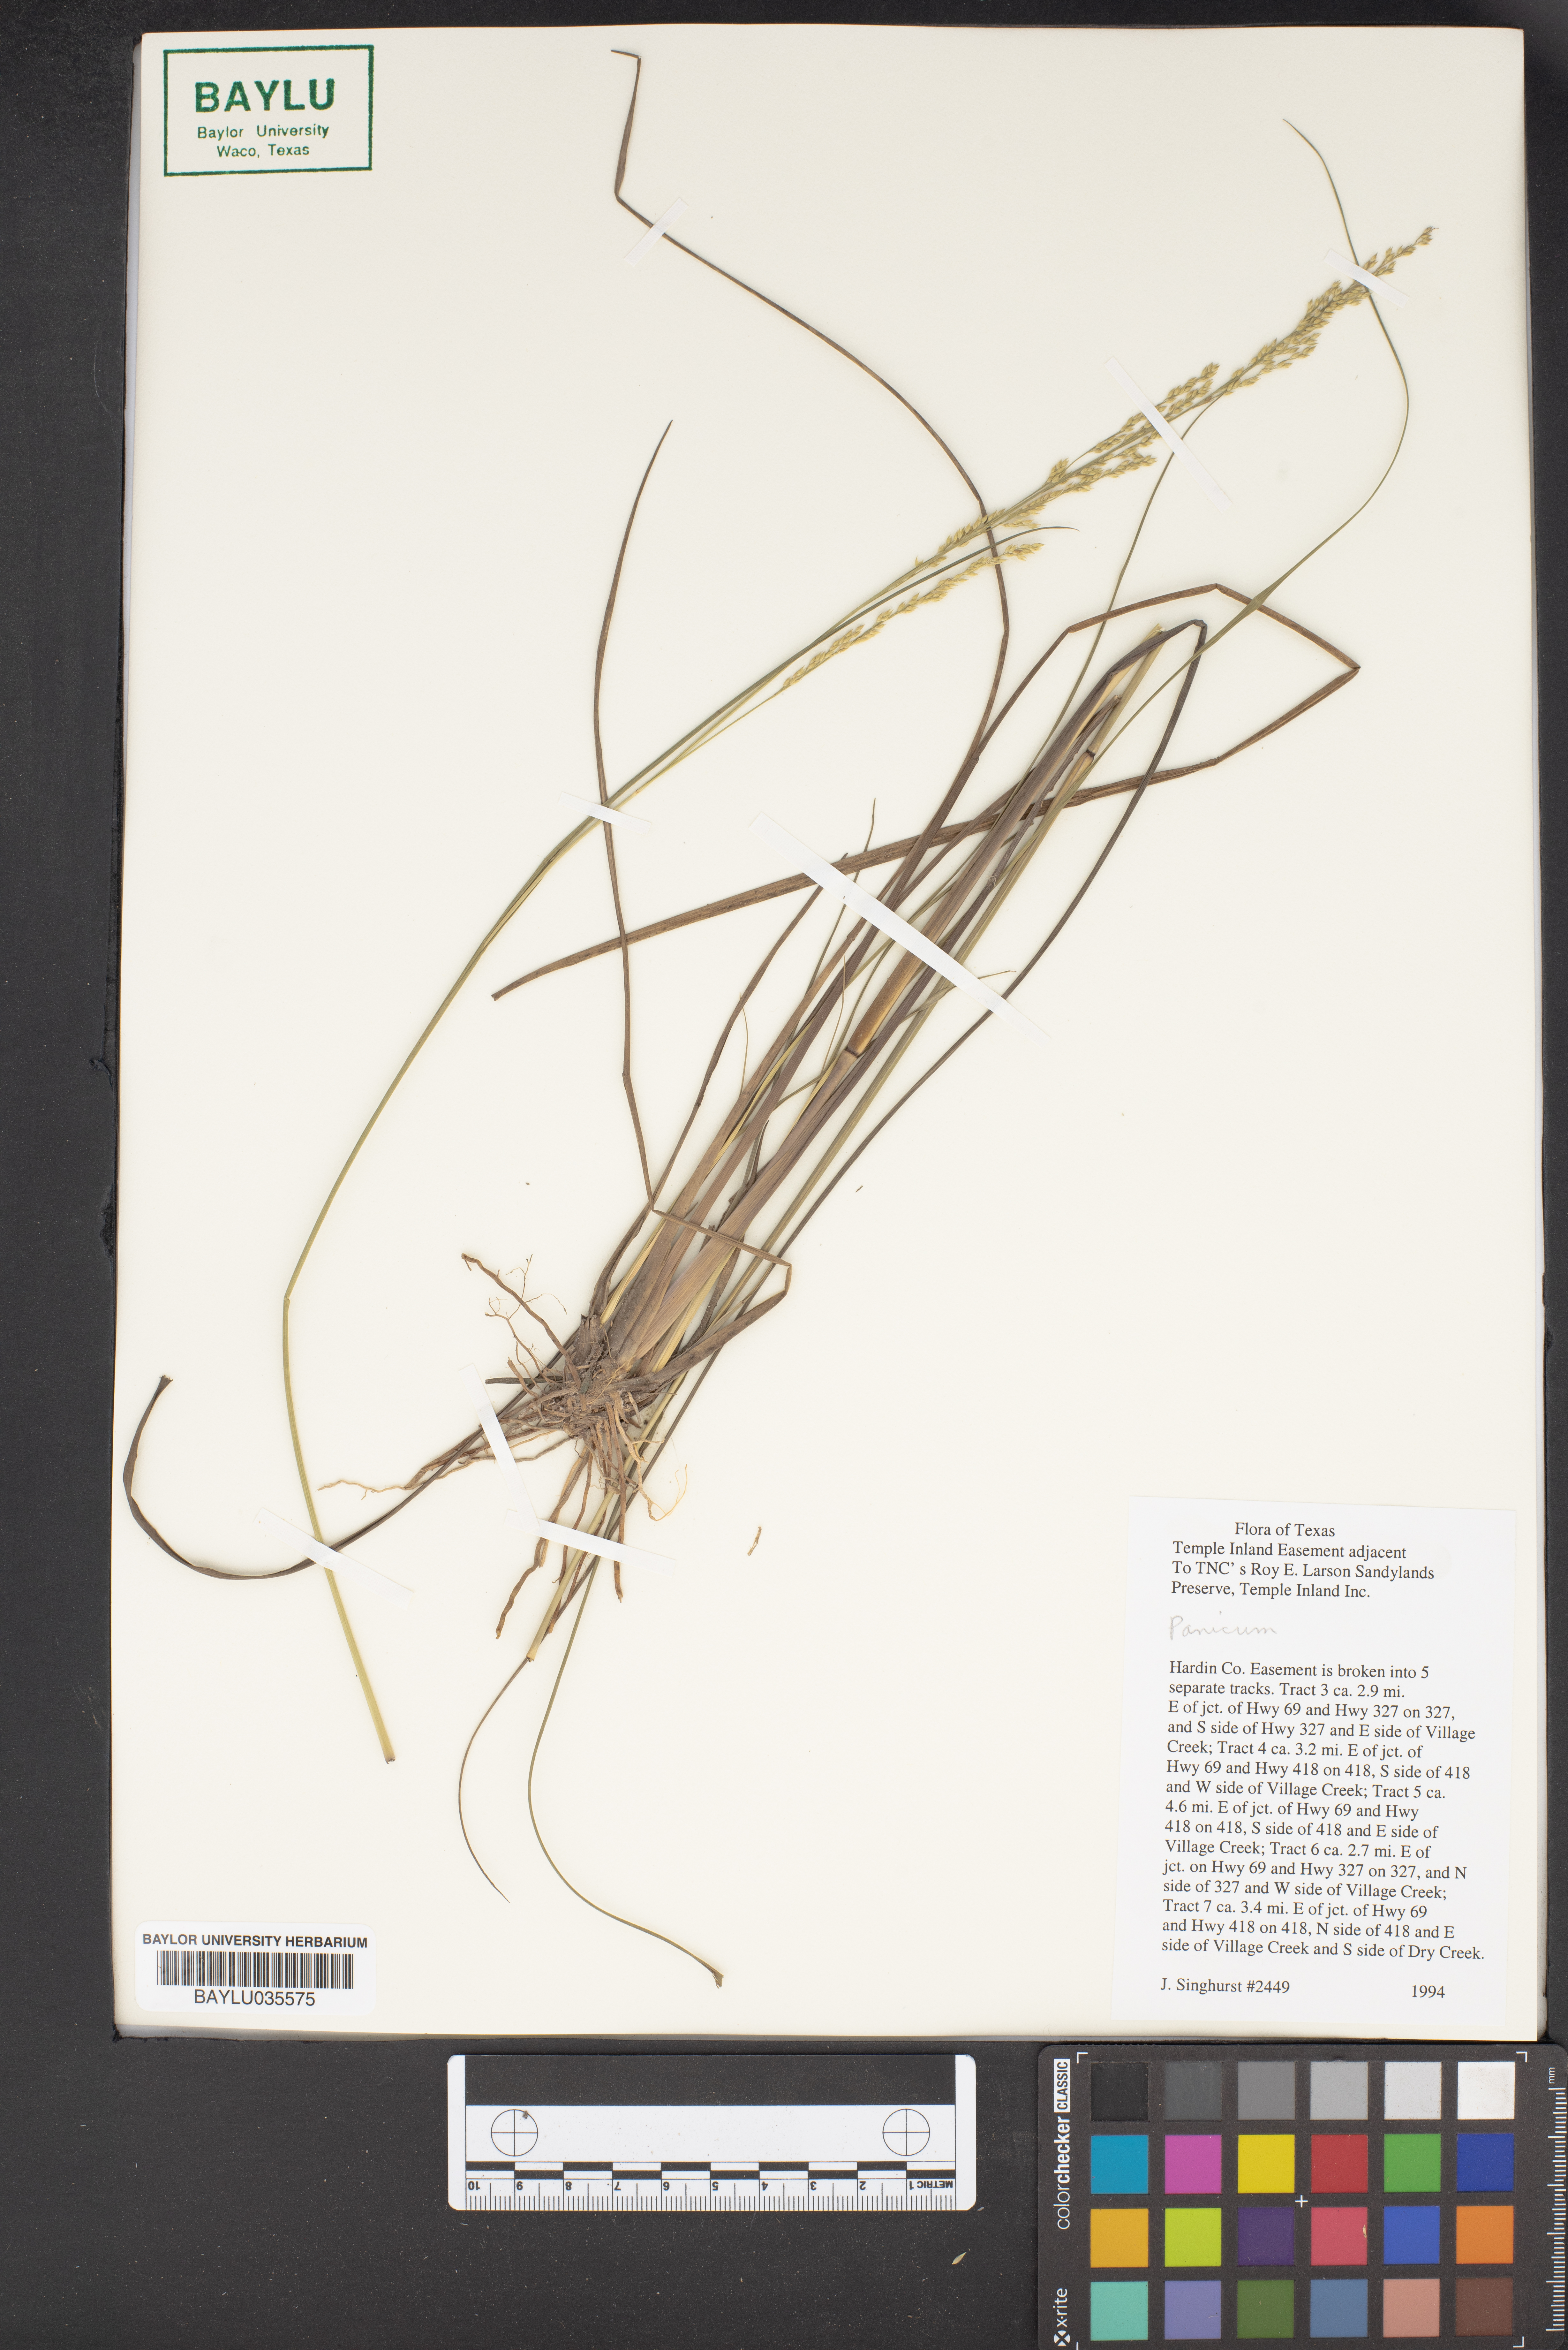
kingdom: Plantae
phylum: Tracheophyta
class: Liliopsida
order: Poales
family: Poaceae
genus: Panicum
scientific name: Panicum
